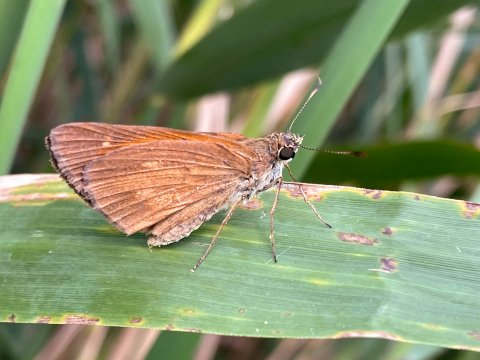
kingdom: Animalia
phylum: Arthropoda
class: Insecta
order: Lepidoptera
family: Hesperiidae
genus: Poanes
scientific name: Poanes viator
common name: Broad-winged Skipper
